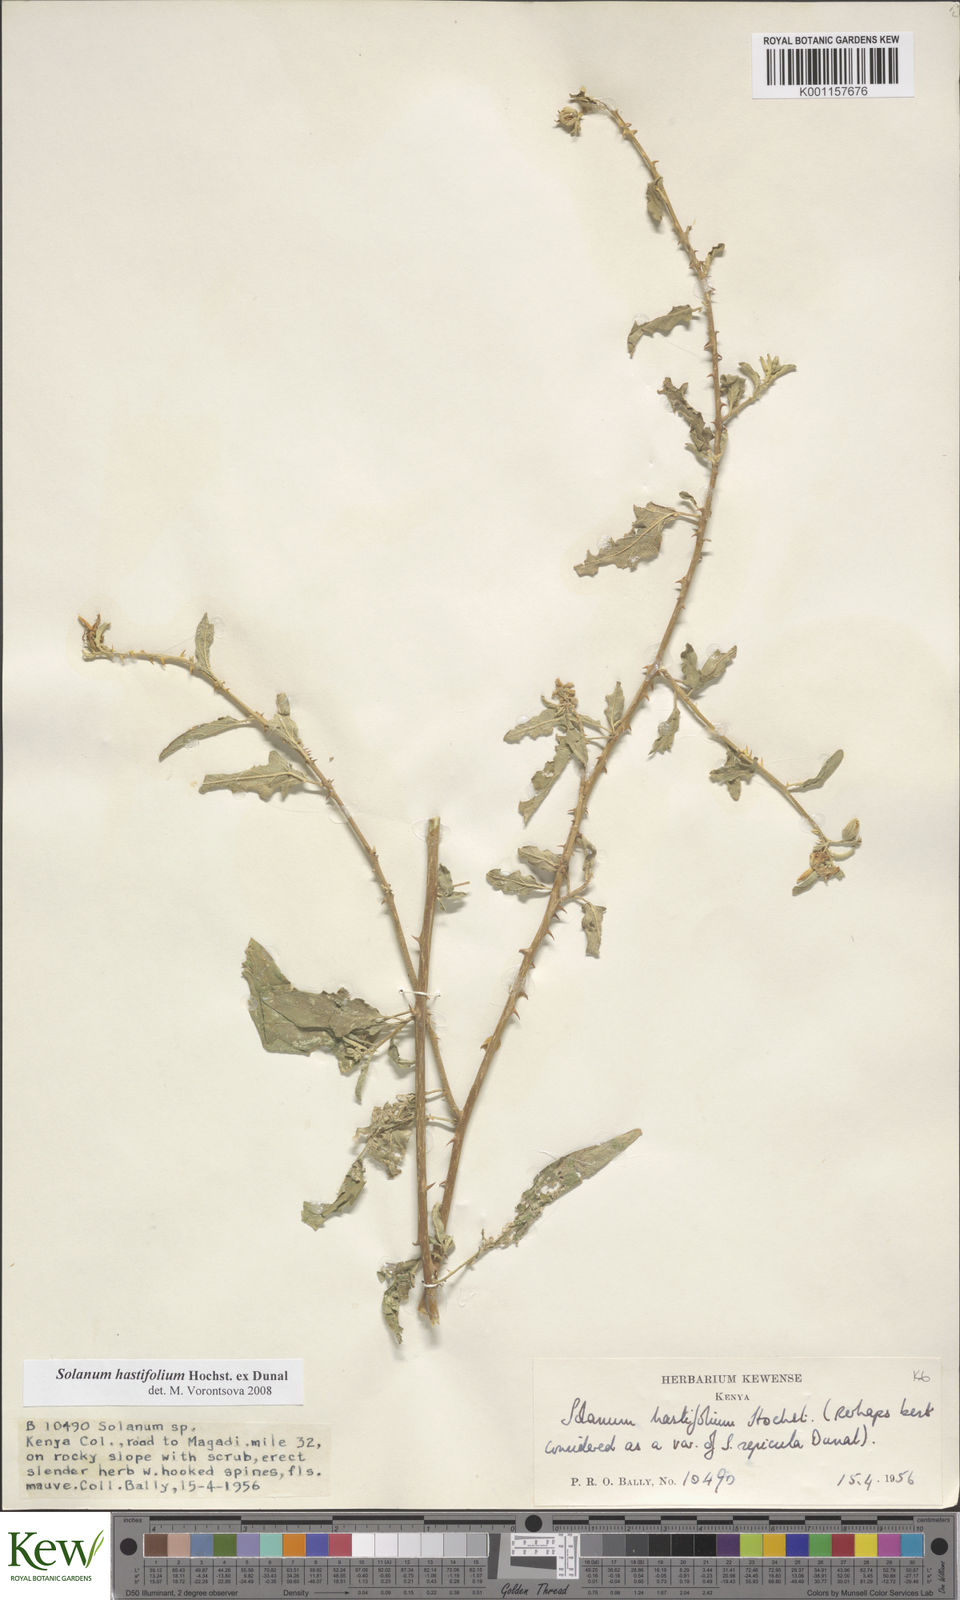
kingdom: Plantae
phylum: Tracheophyta
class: Magnoliopsida
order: Solanales
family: Solanaceae
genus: Solanum
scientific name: Solanum hastifolium
